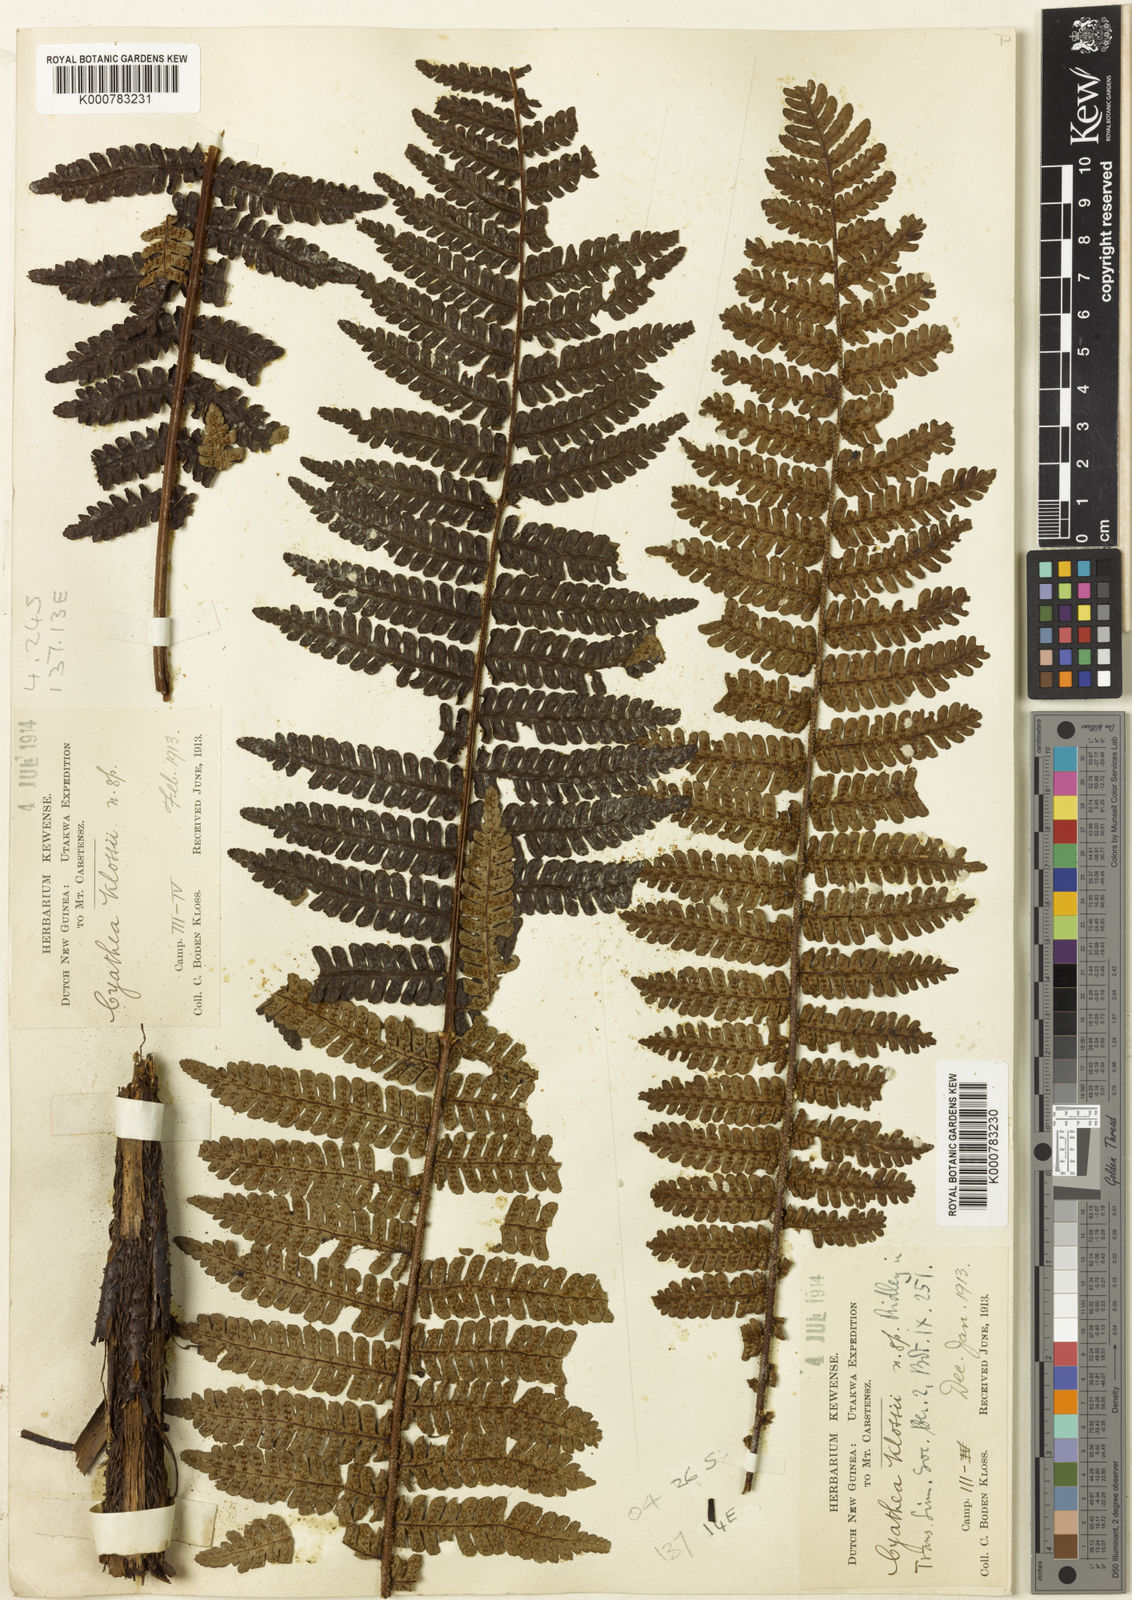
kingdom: Plantae
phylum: Tracheophyta
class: Polypodiopsida
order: Cyatheales
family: Cyatheaceae
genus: Alsophila
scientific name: Alsophila klossii
